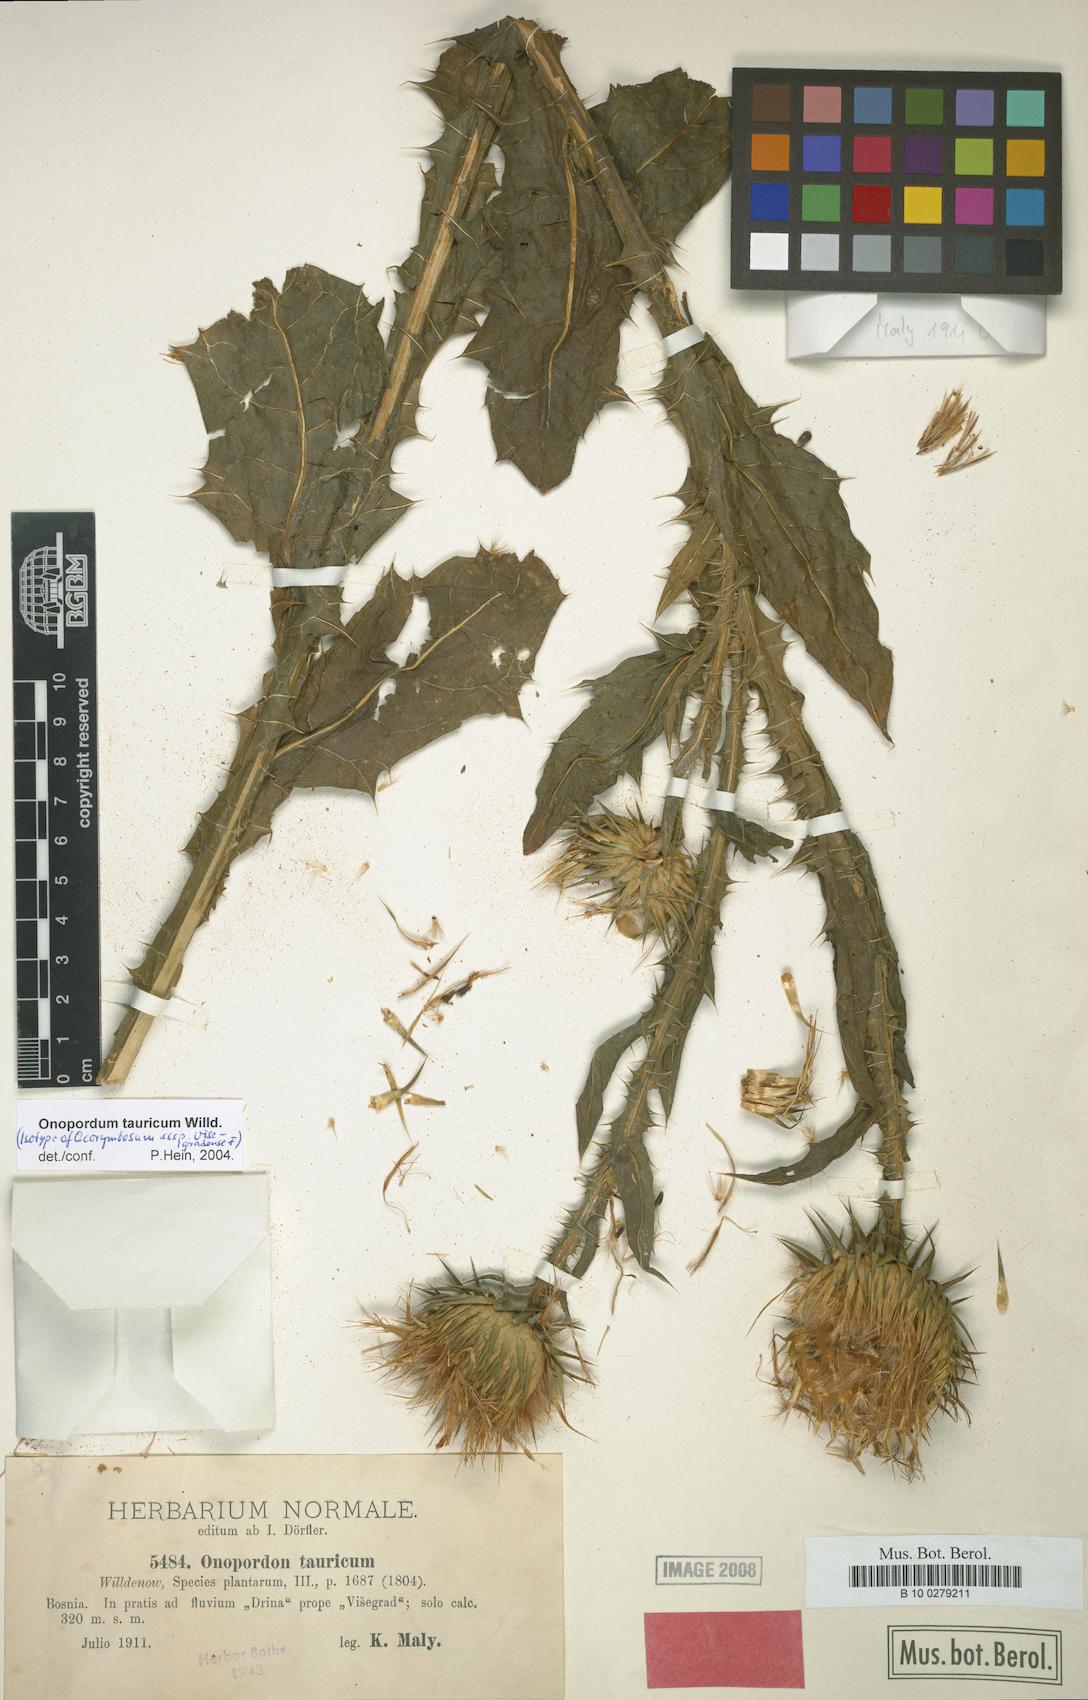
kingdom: Plantae
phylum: Tracheophyta
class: Magnoliopsida
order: Asterales
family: Asteraceae
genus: Onopordum
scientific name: Onopordum tauricum
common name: Bull cottonthistle
